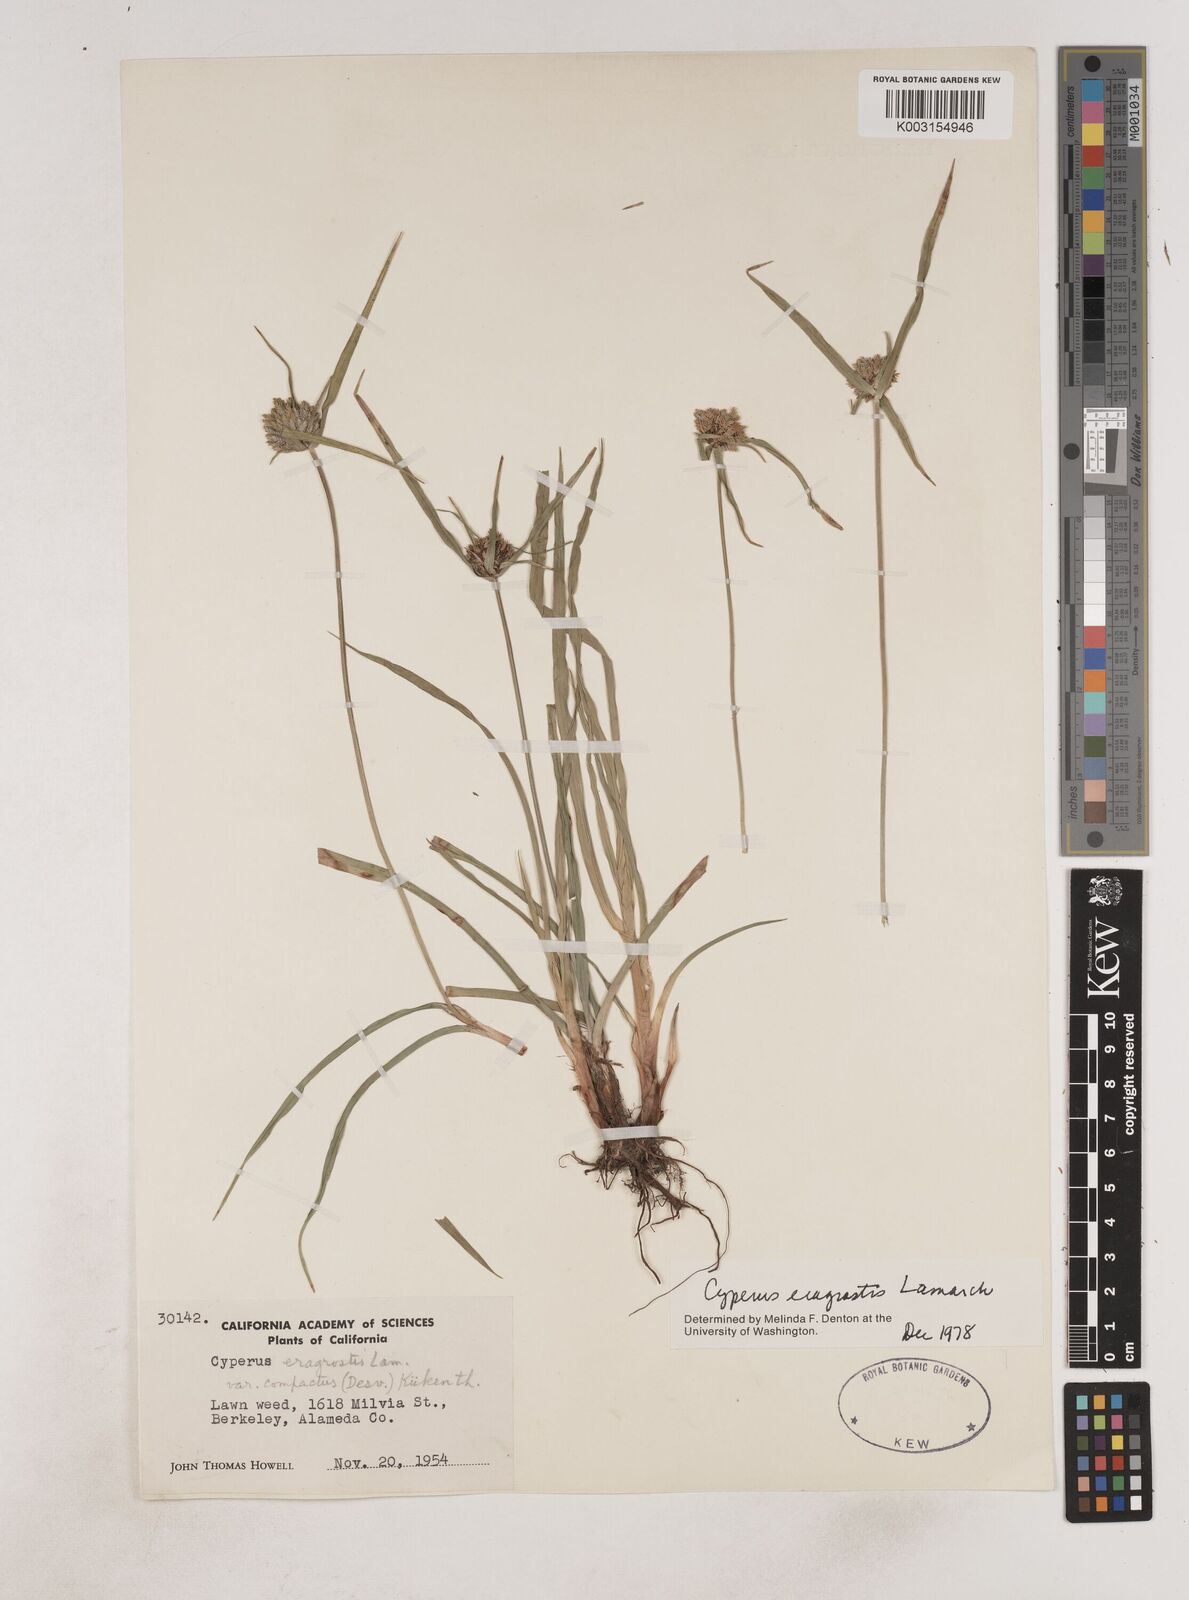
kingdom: Plantae
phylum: Tracheophyta
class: Liliopsida
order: Poales
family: Cyperaceae
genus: Cyperus
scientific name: Cyperus eragrostis
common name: Tall flatsedge
